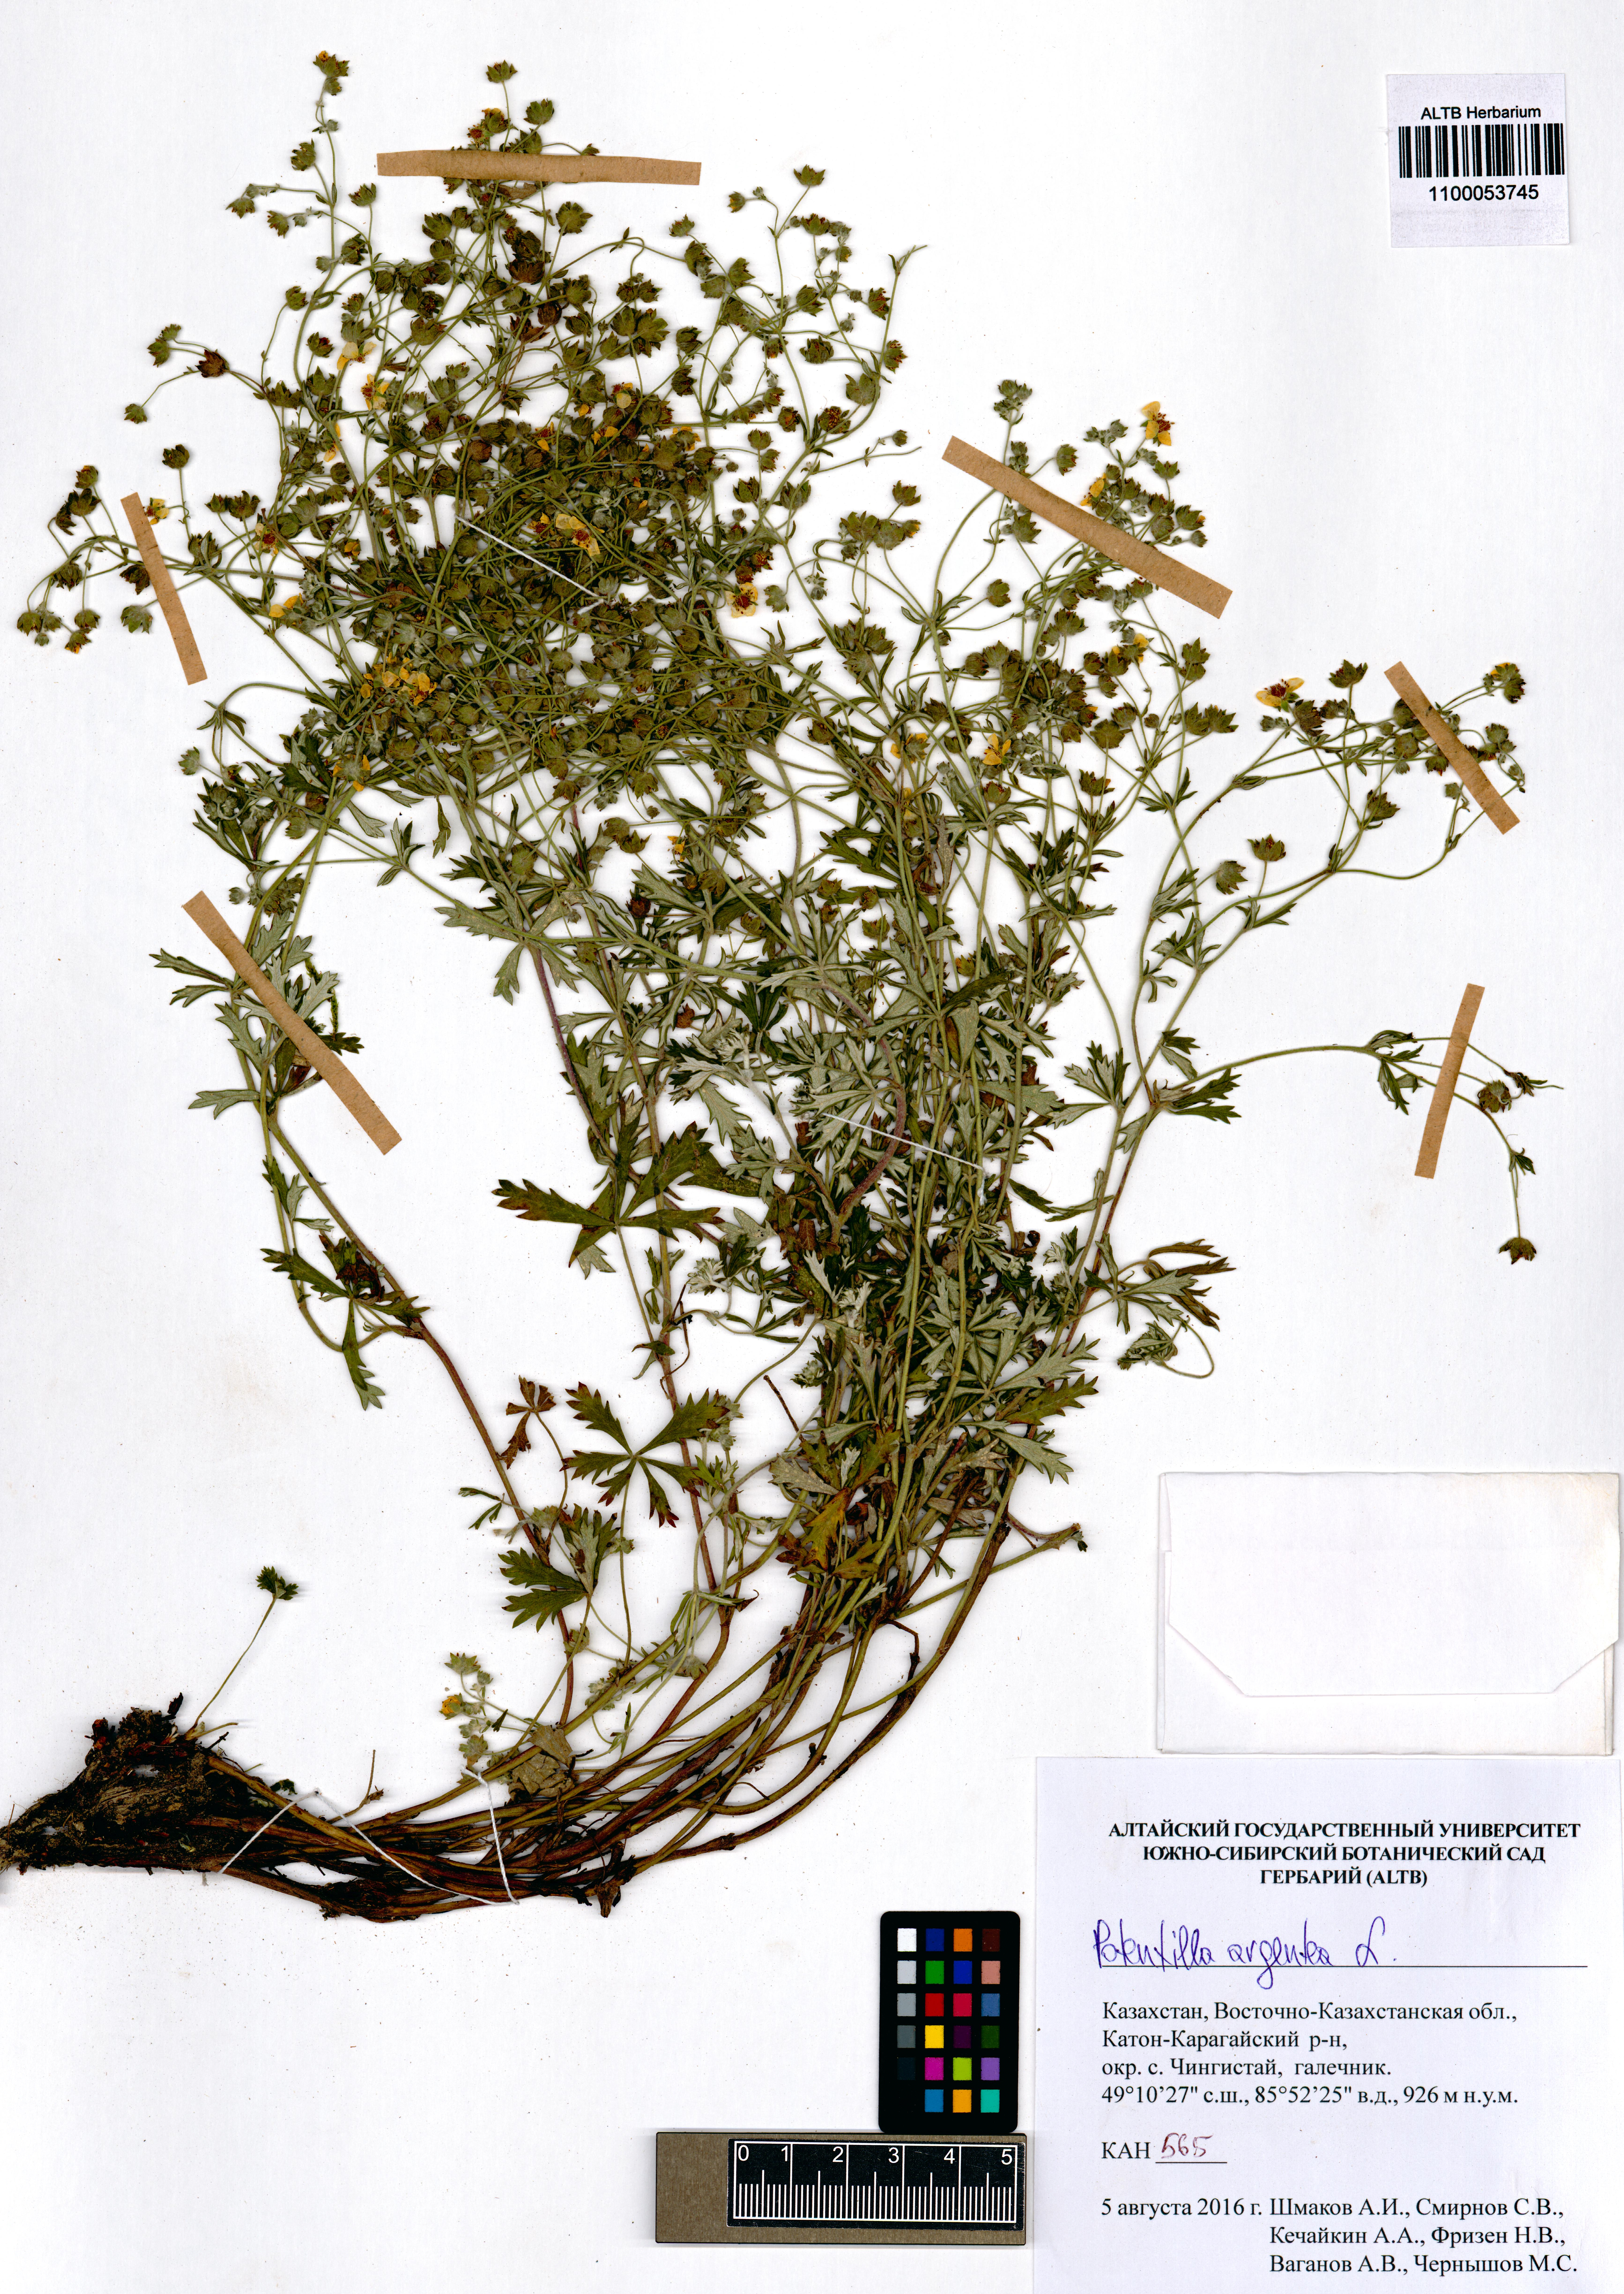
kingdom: Plantae
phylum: Tracheophyta
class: Magnoliopsida
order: Rosales
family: Rosaceae
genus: Potentilla
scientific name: Potentilla argentea
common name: Hoary cinquefoil
